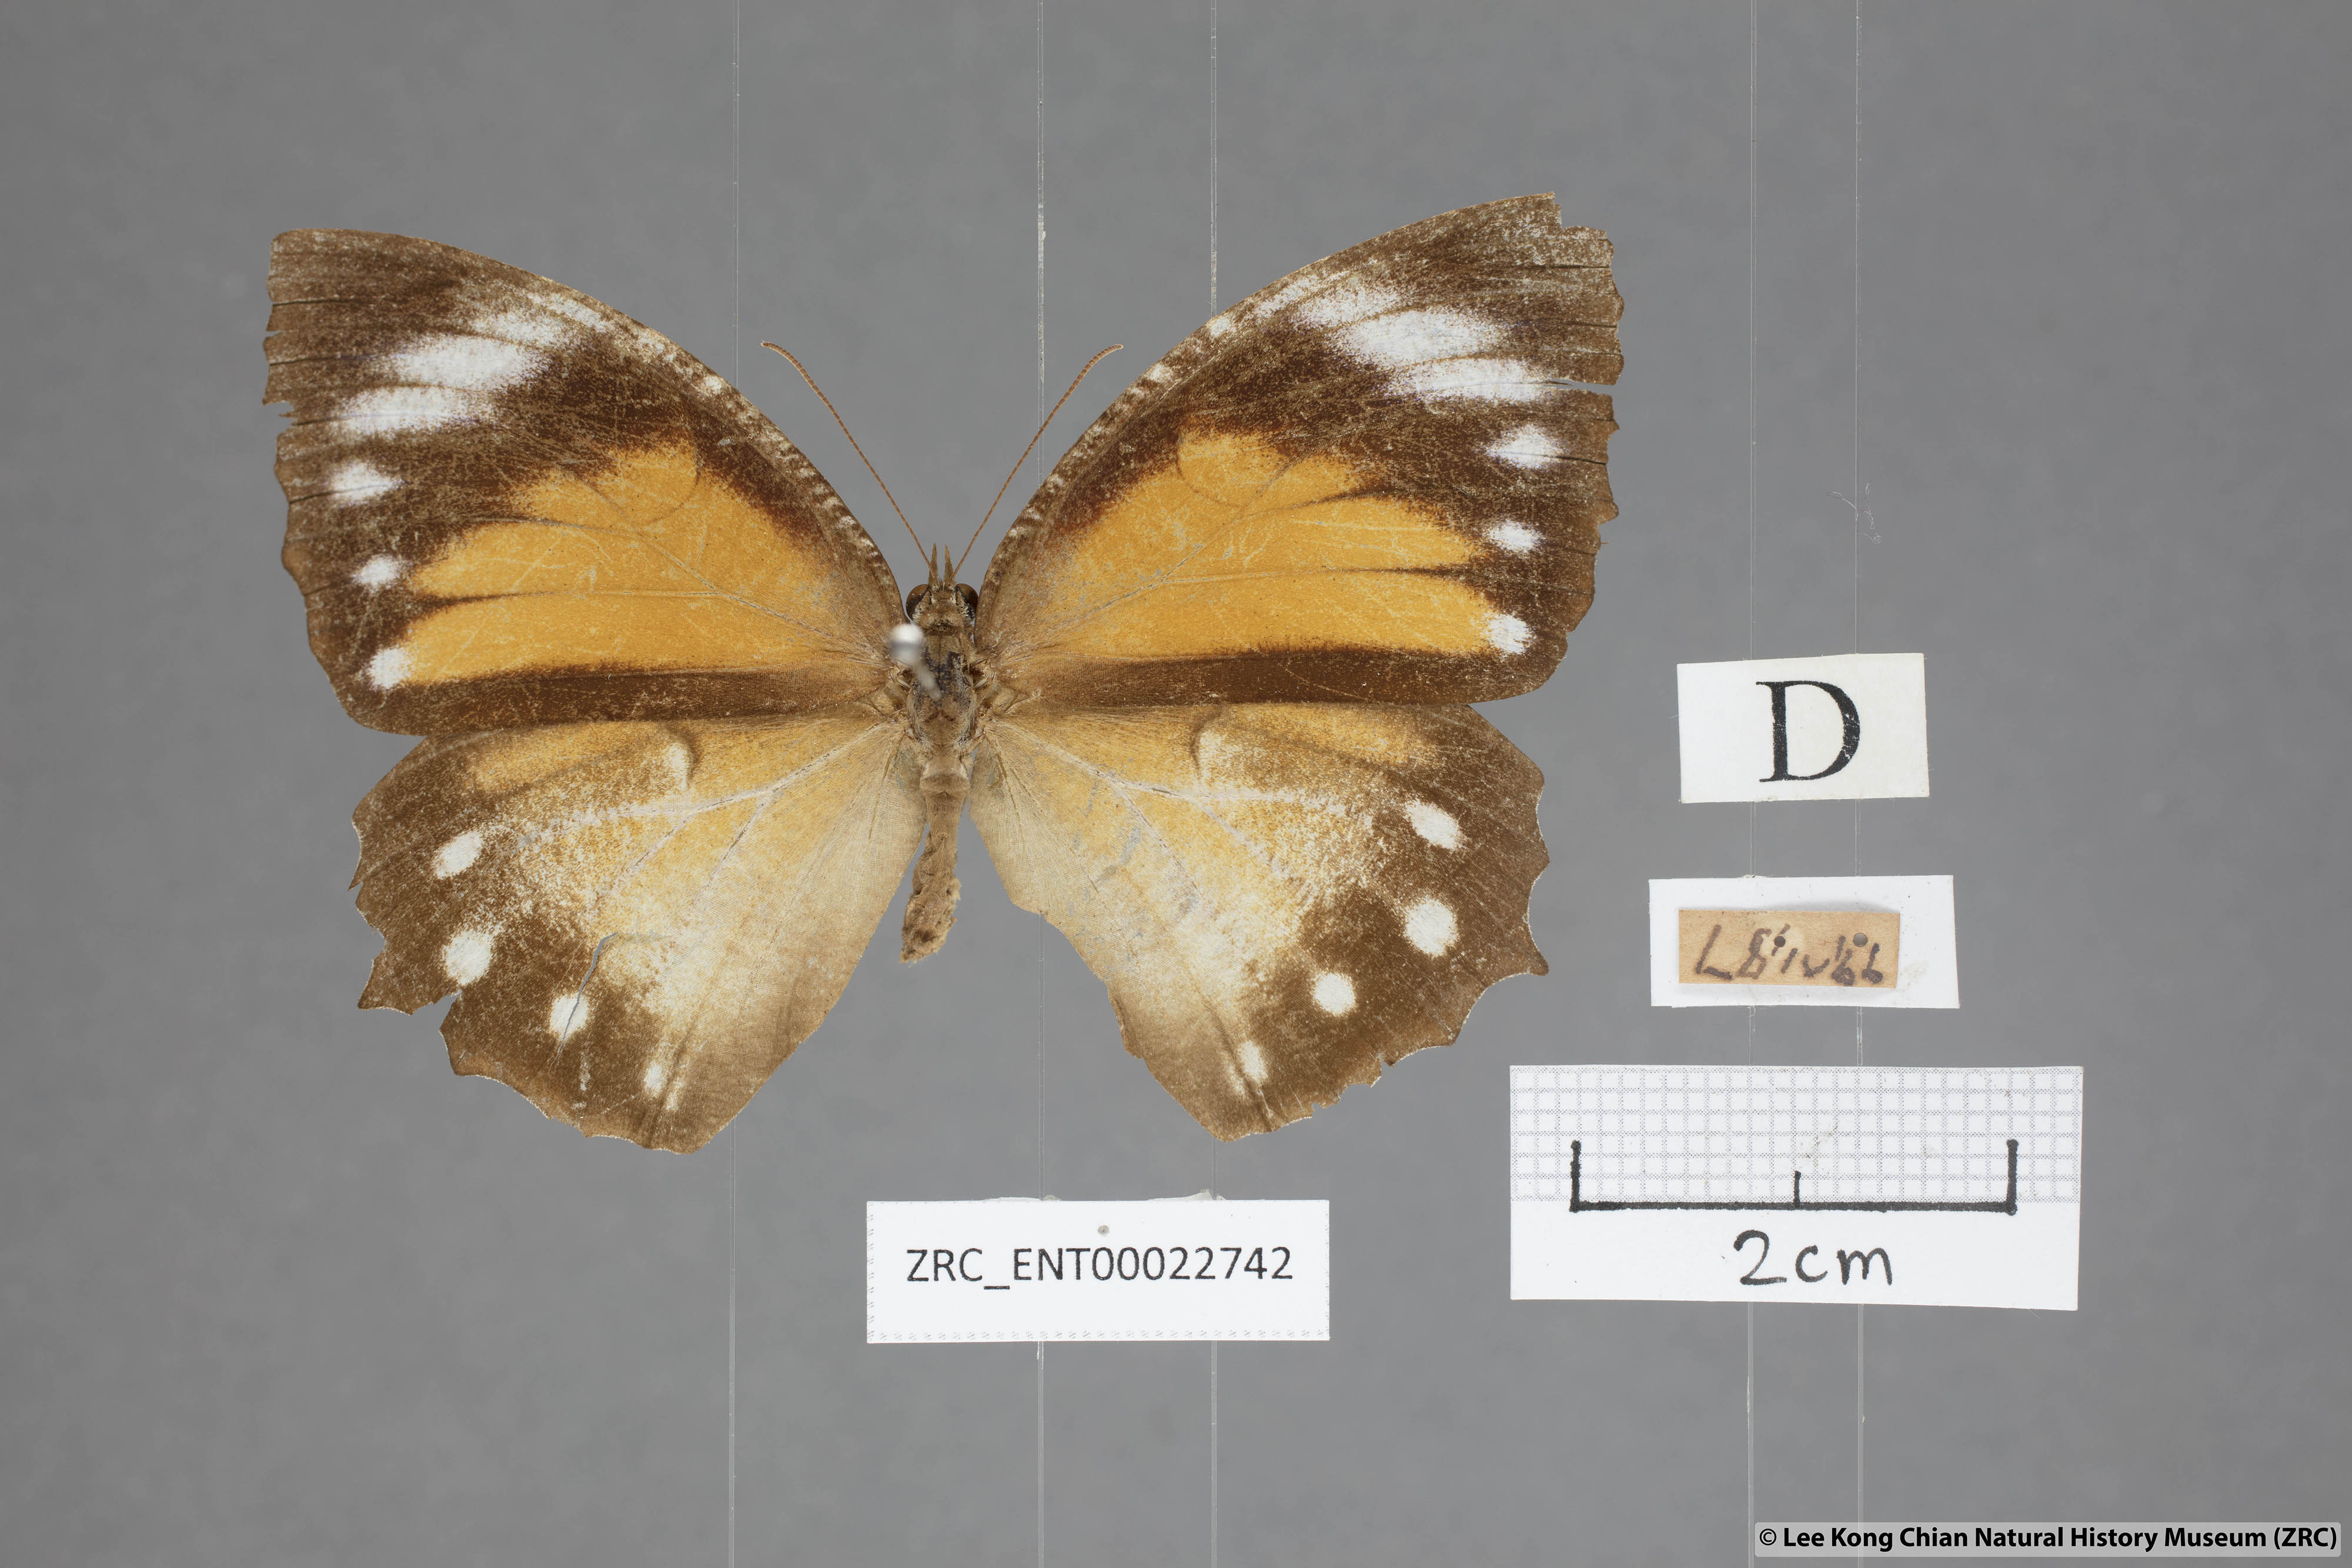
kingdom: Animalia
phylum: Arthropoda
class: Insecta
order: Lepidoptera
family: Nymphalidae
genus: Elymnias
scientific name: Elymnias hypermnestra
